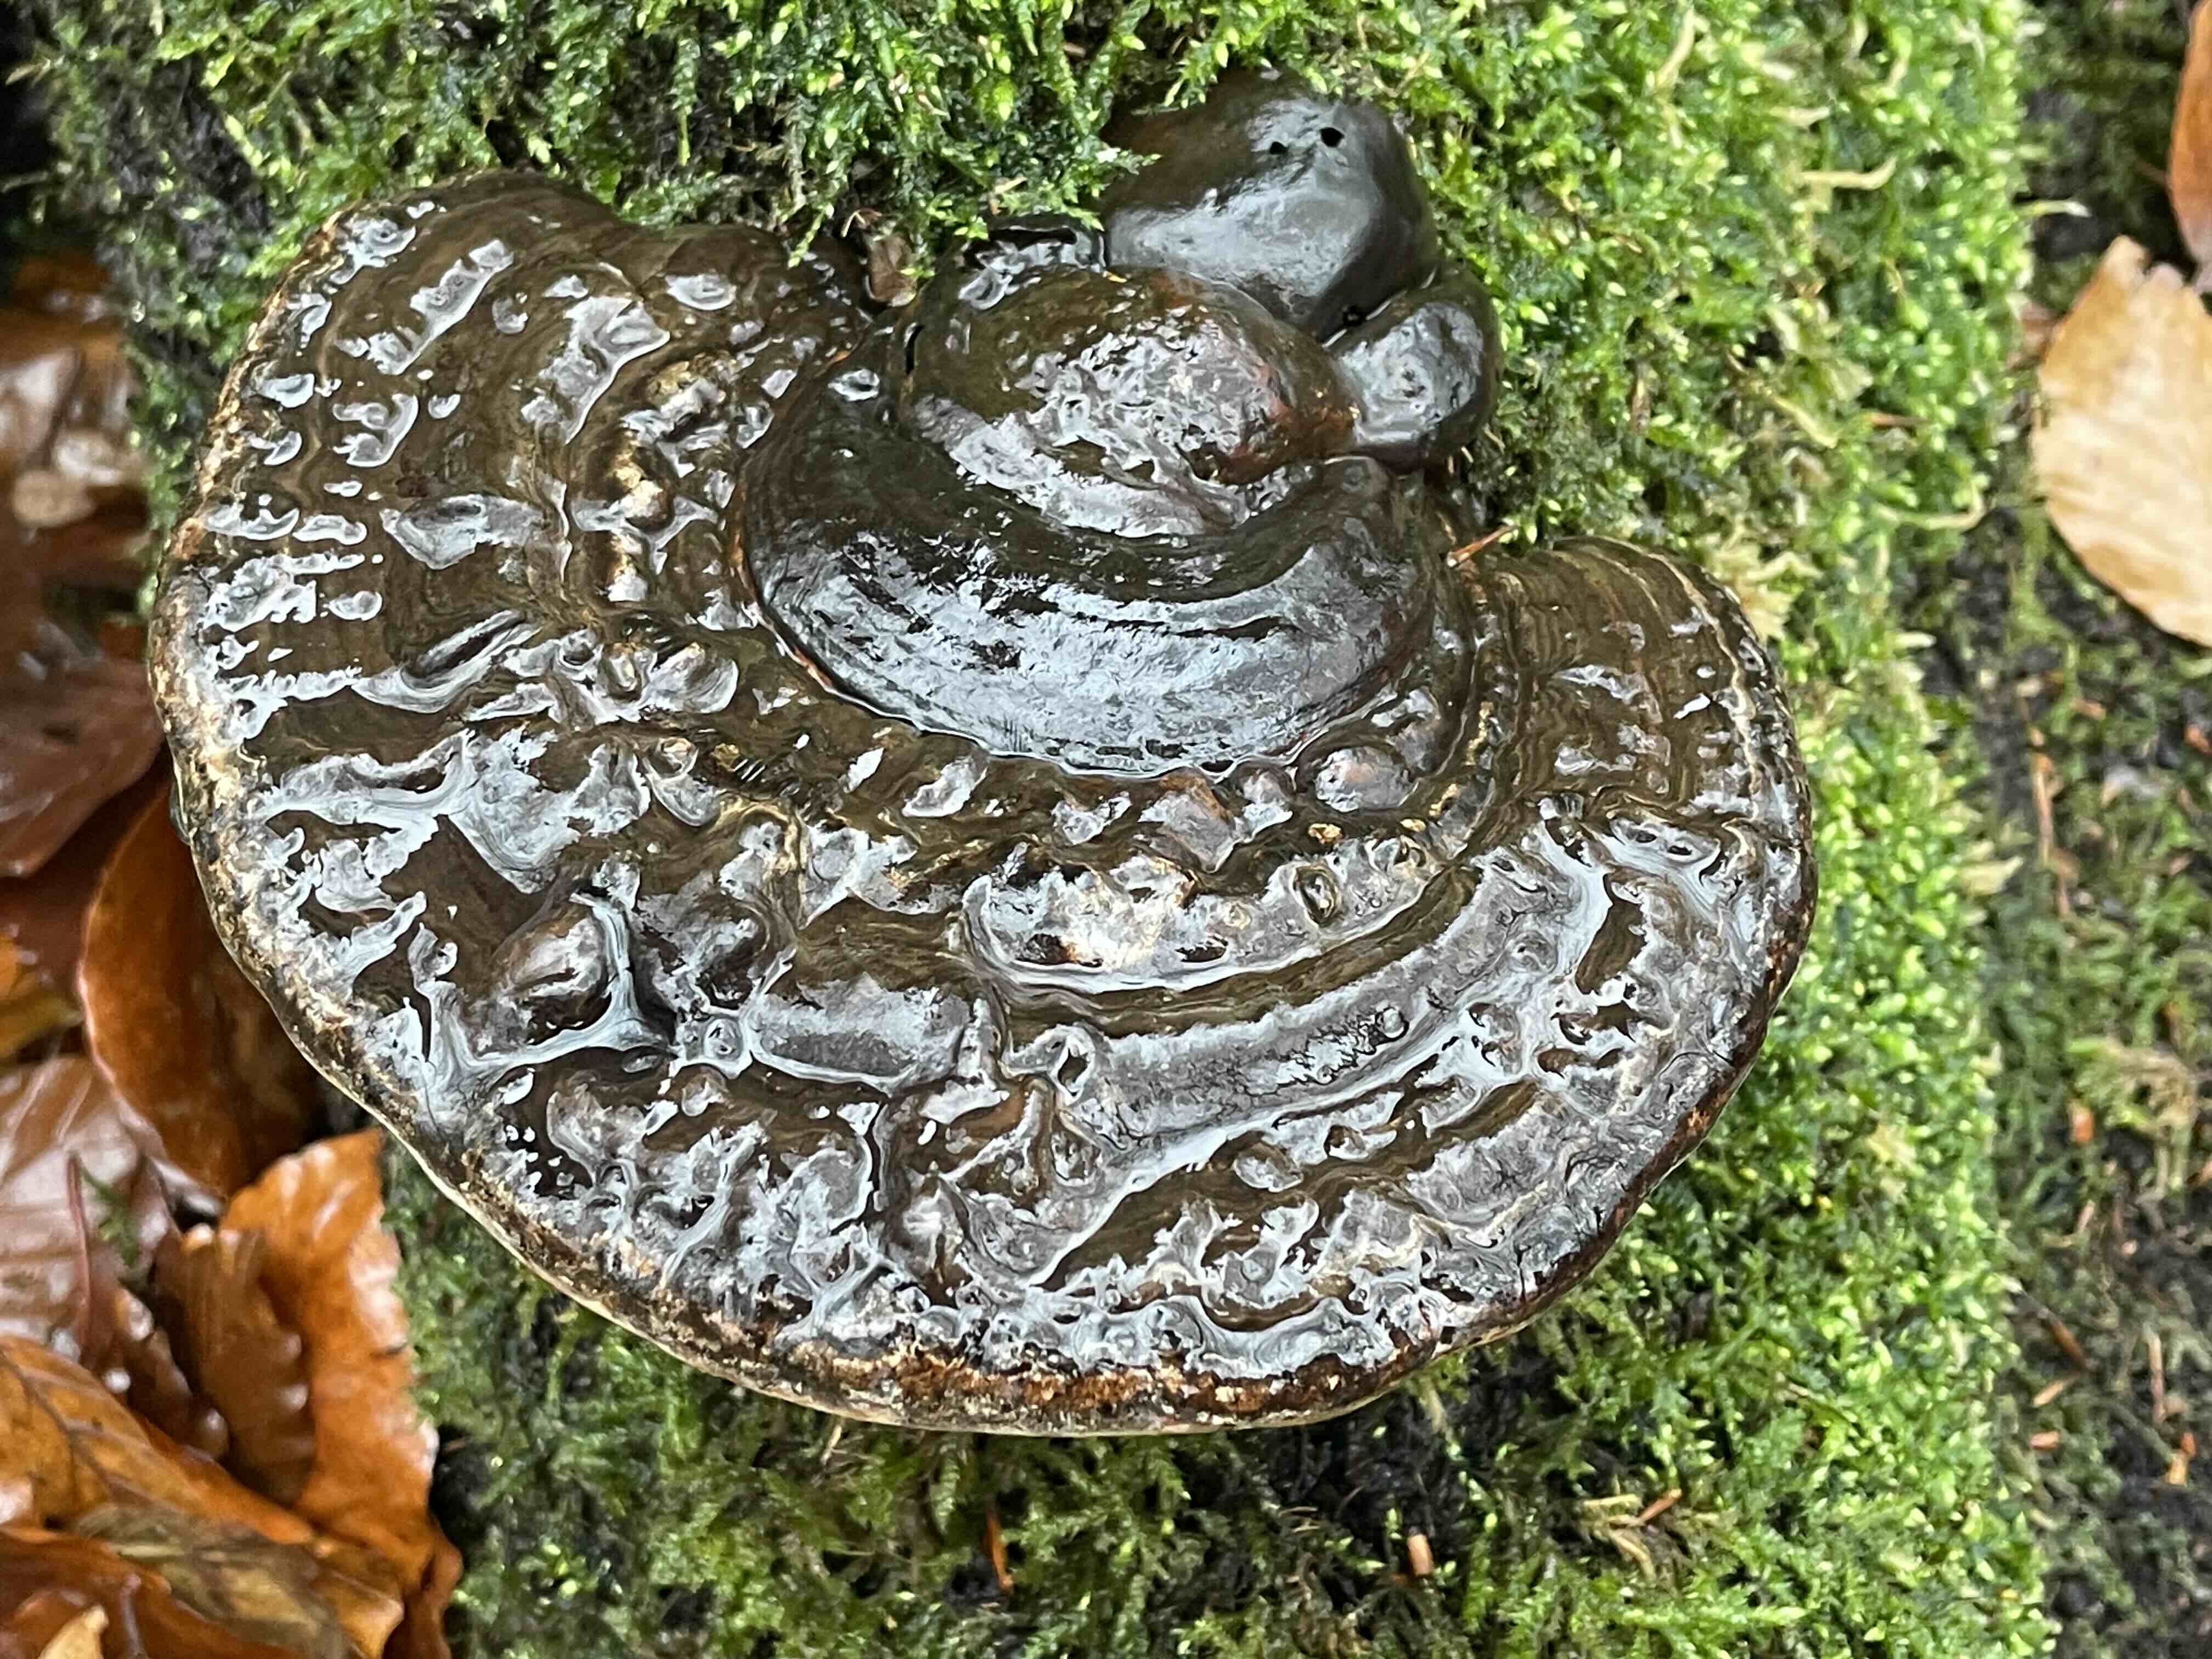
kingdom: Fungi
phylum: Basidiomycota
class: Agaricomycetes
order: Polyporales
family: Polyporaceae
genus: Ganoderma
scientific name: Ganoderma applanatum
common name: flad lakporesvamp
